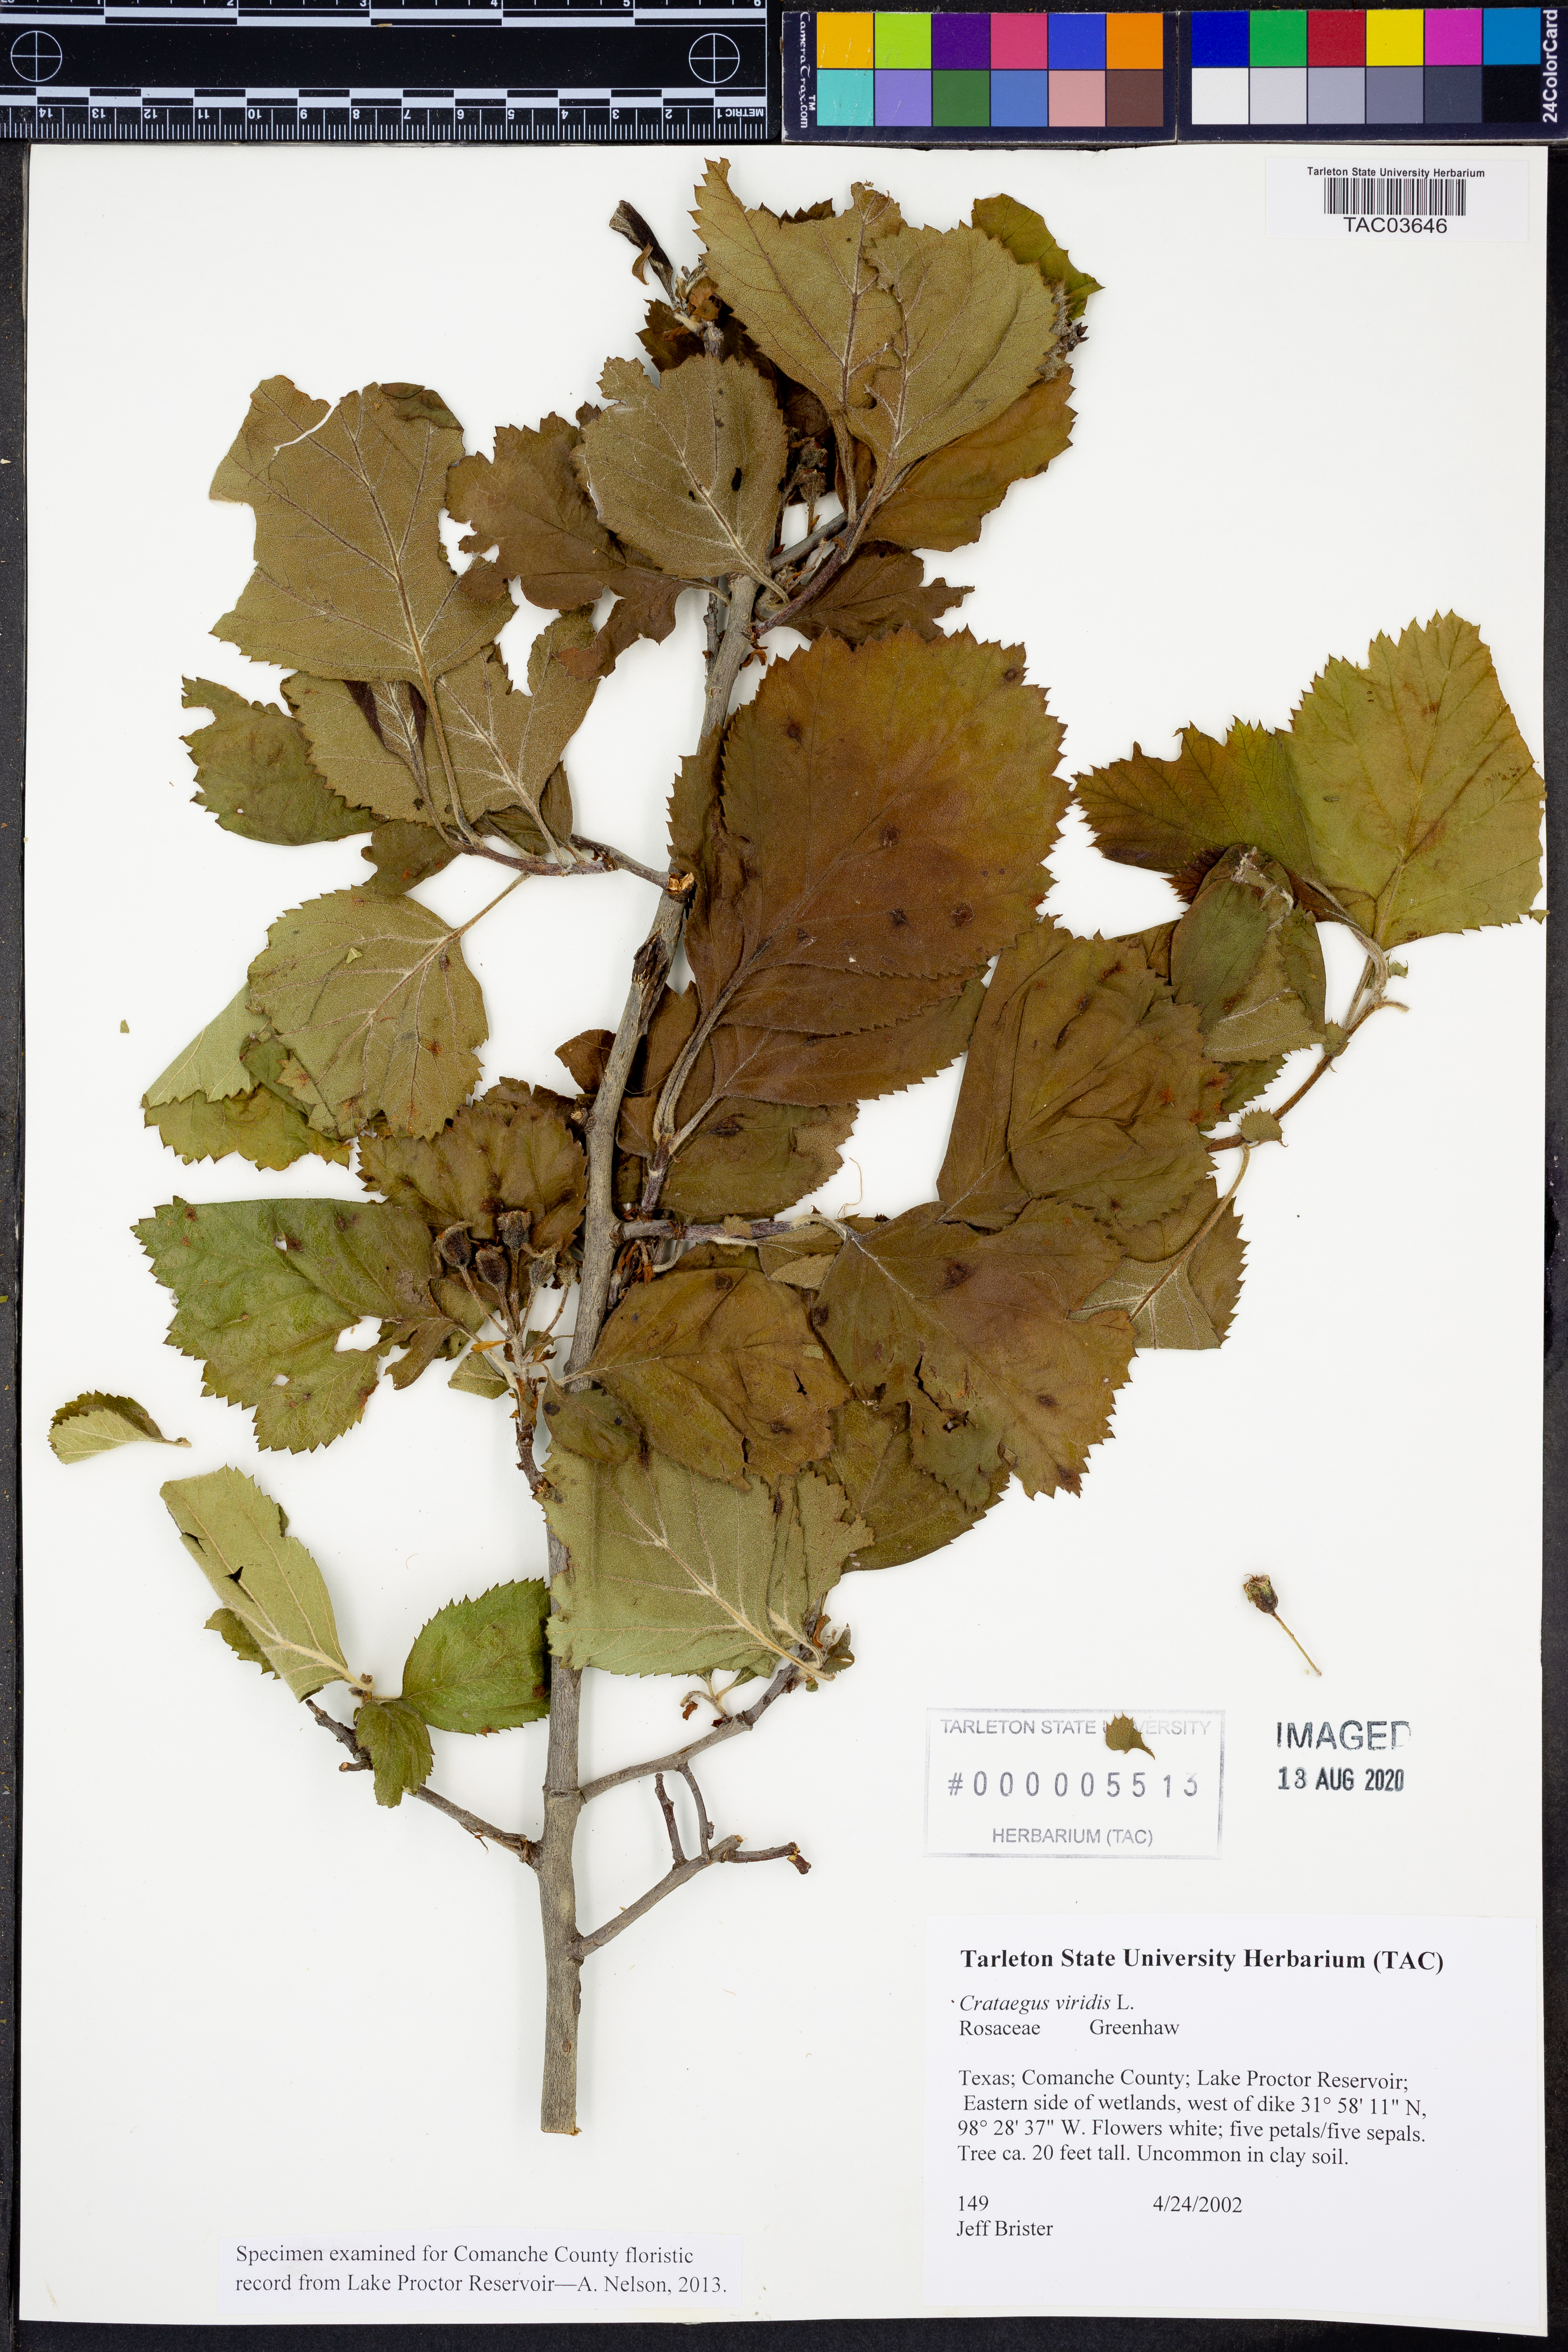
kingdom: Plantae
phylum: Tracheophyta
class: Magnoliopsida
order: Rosales
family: Rosaceae
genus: Crataegus
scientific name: Crataegus viridis
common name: Southernthorn
